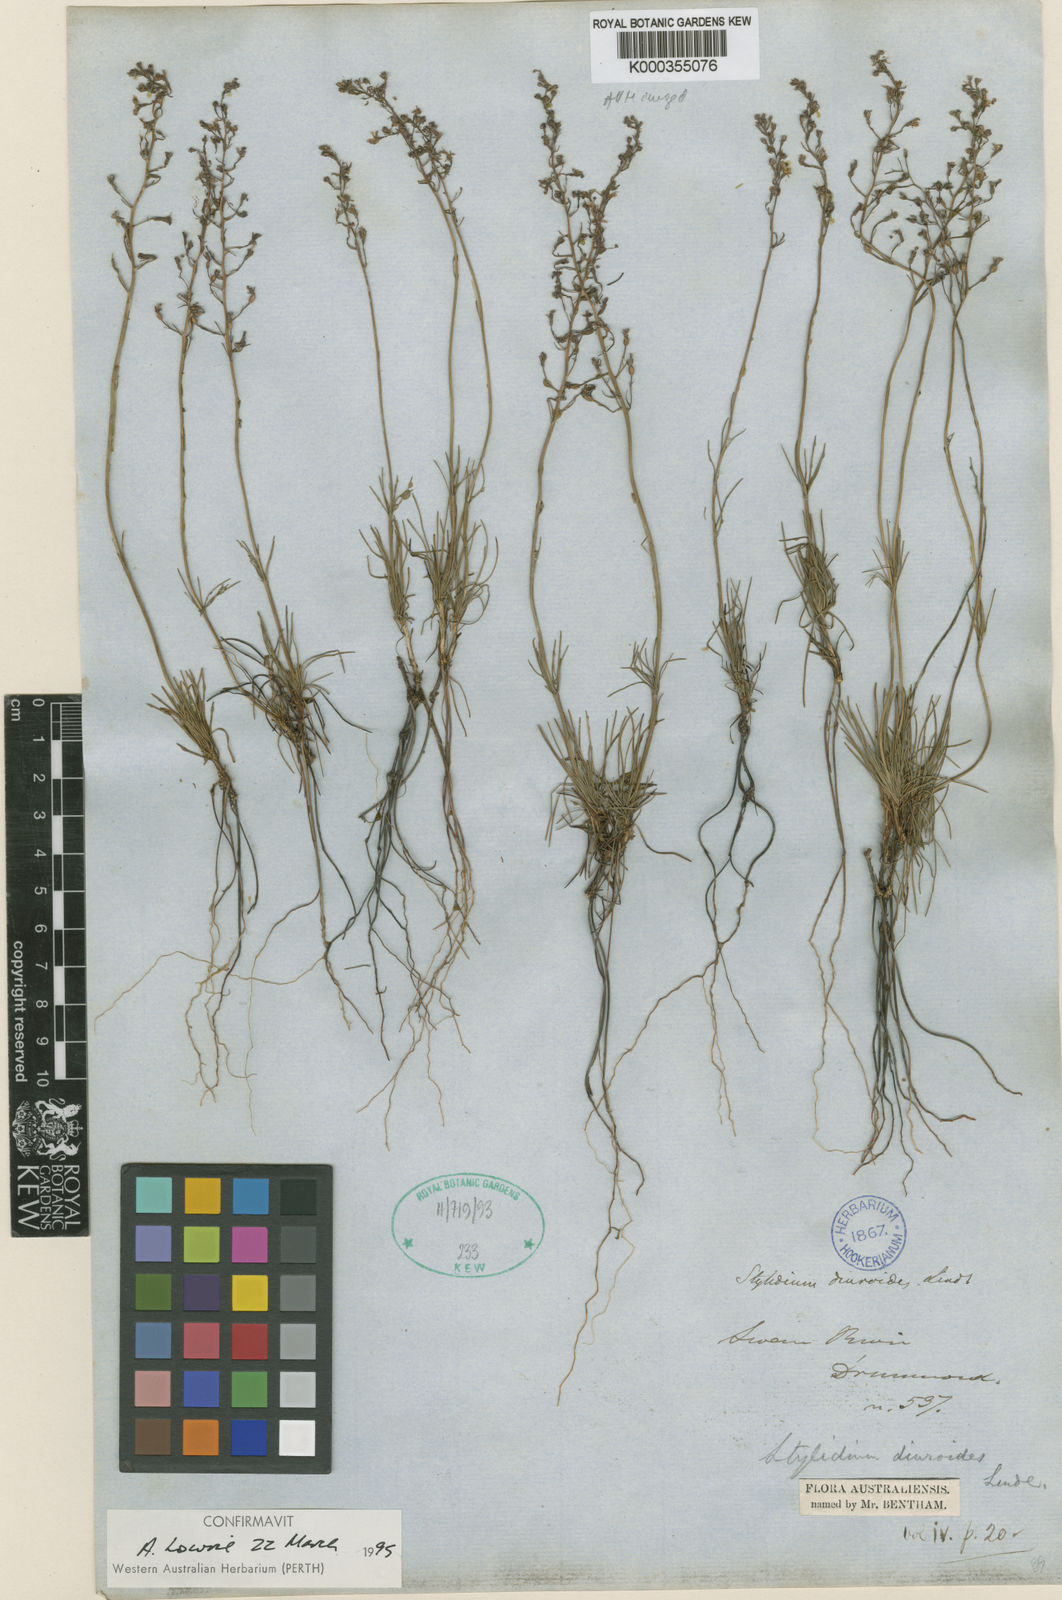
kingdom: Plantae
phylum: Tracheophyta
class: Magnoliopsida
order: Asterales
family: Stylidiaceae
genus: Stylidium
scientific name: Stylidium diuroides
